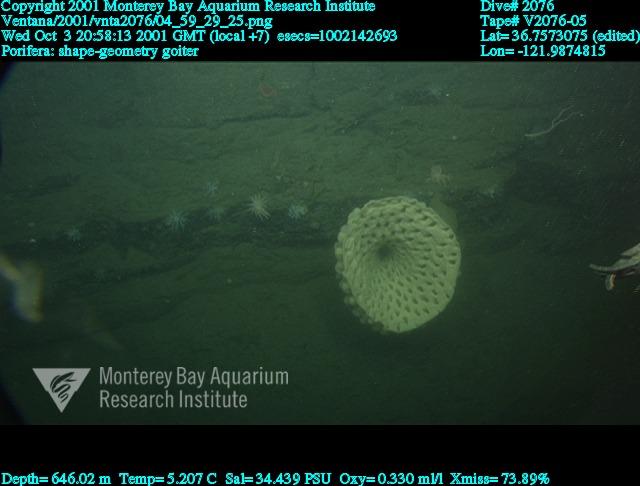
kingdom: Animalia
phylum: Porifera
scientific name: Porifera
